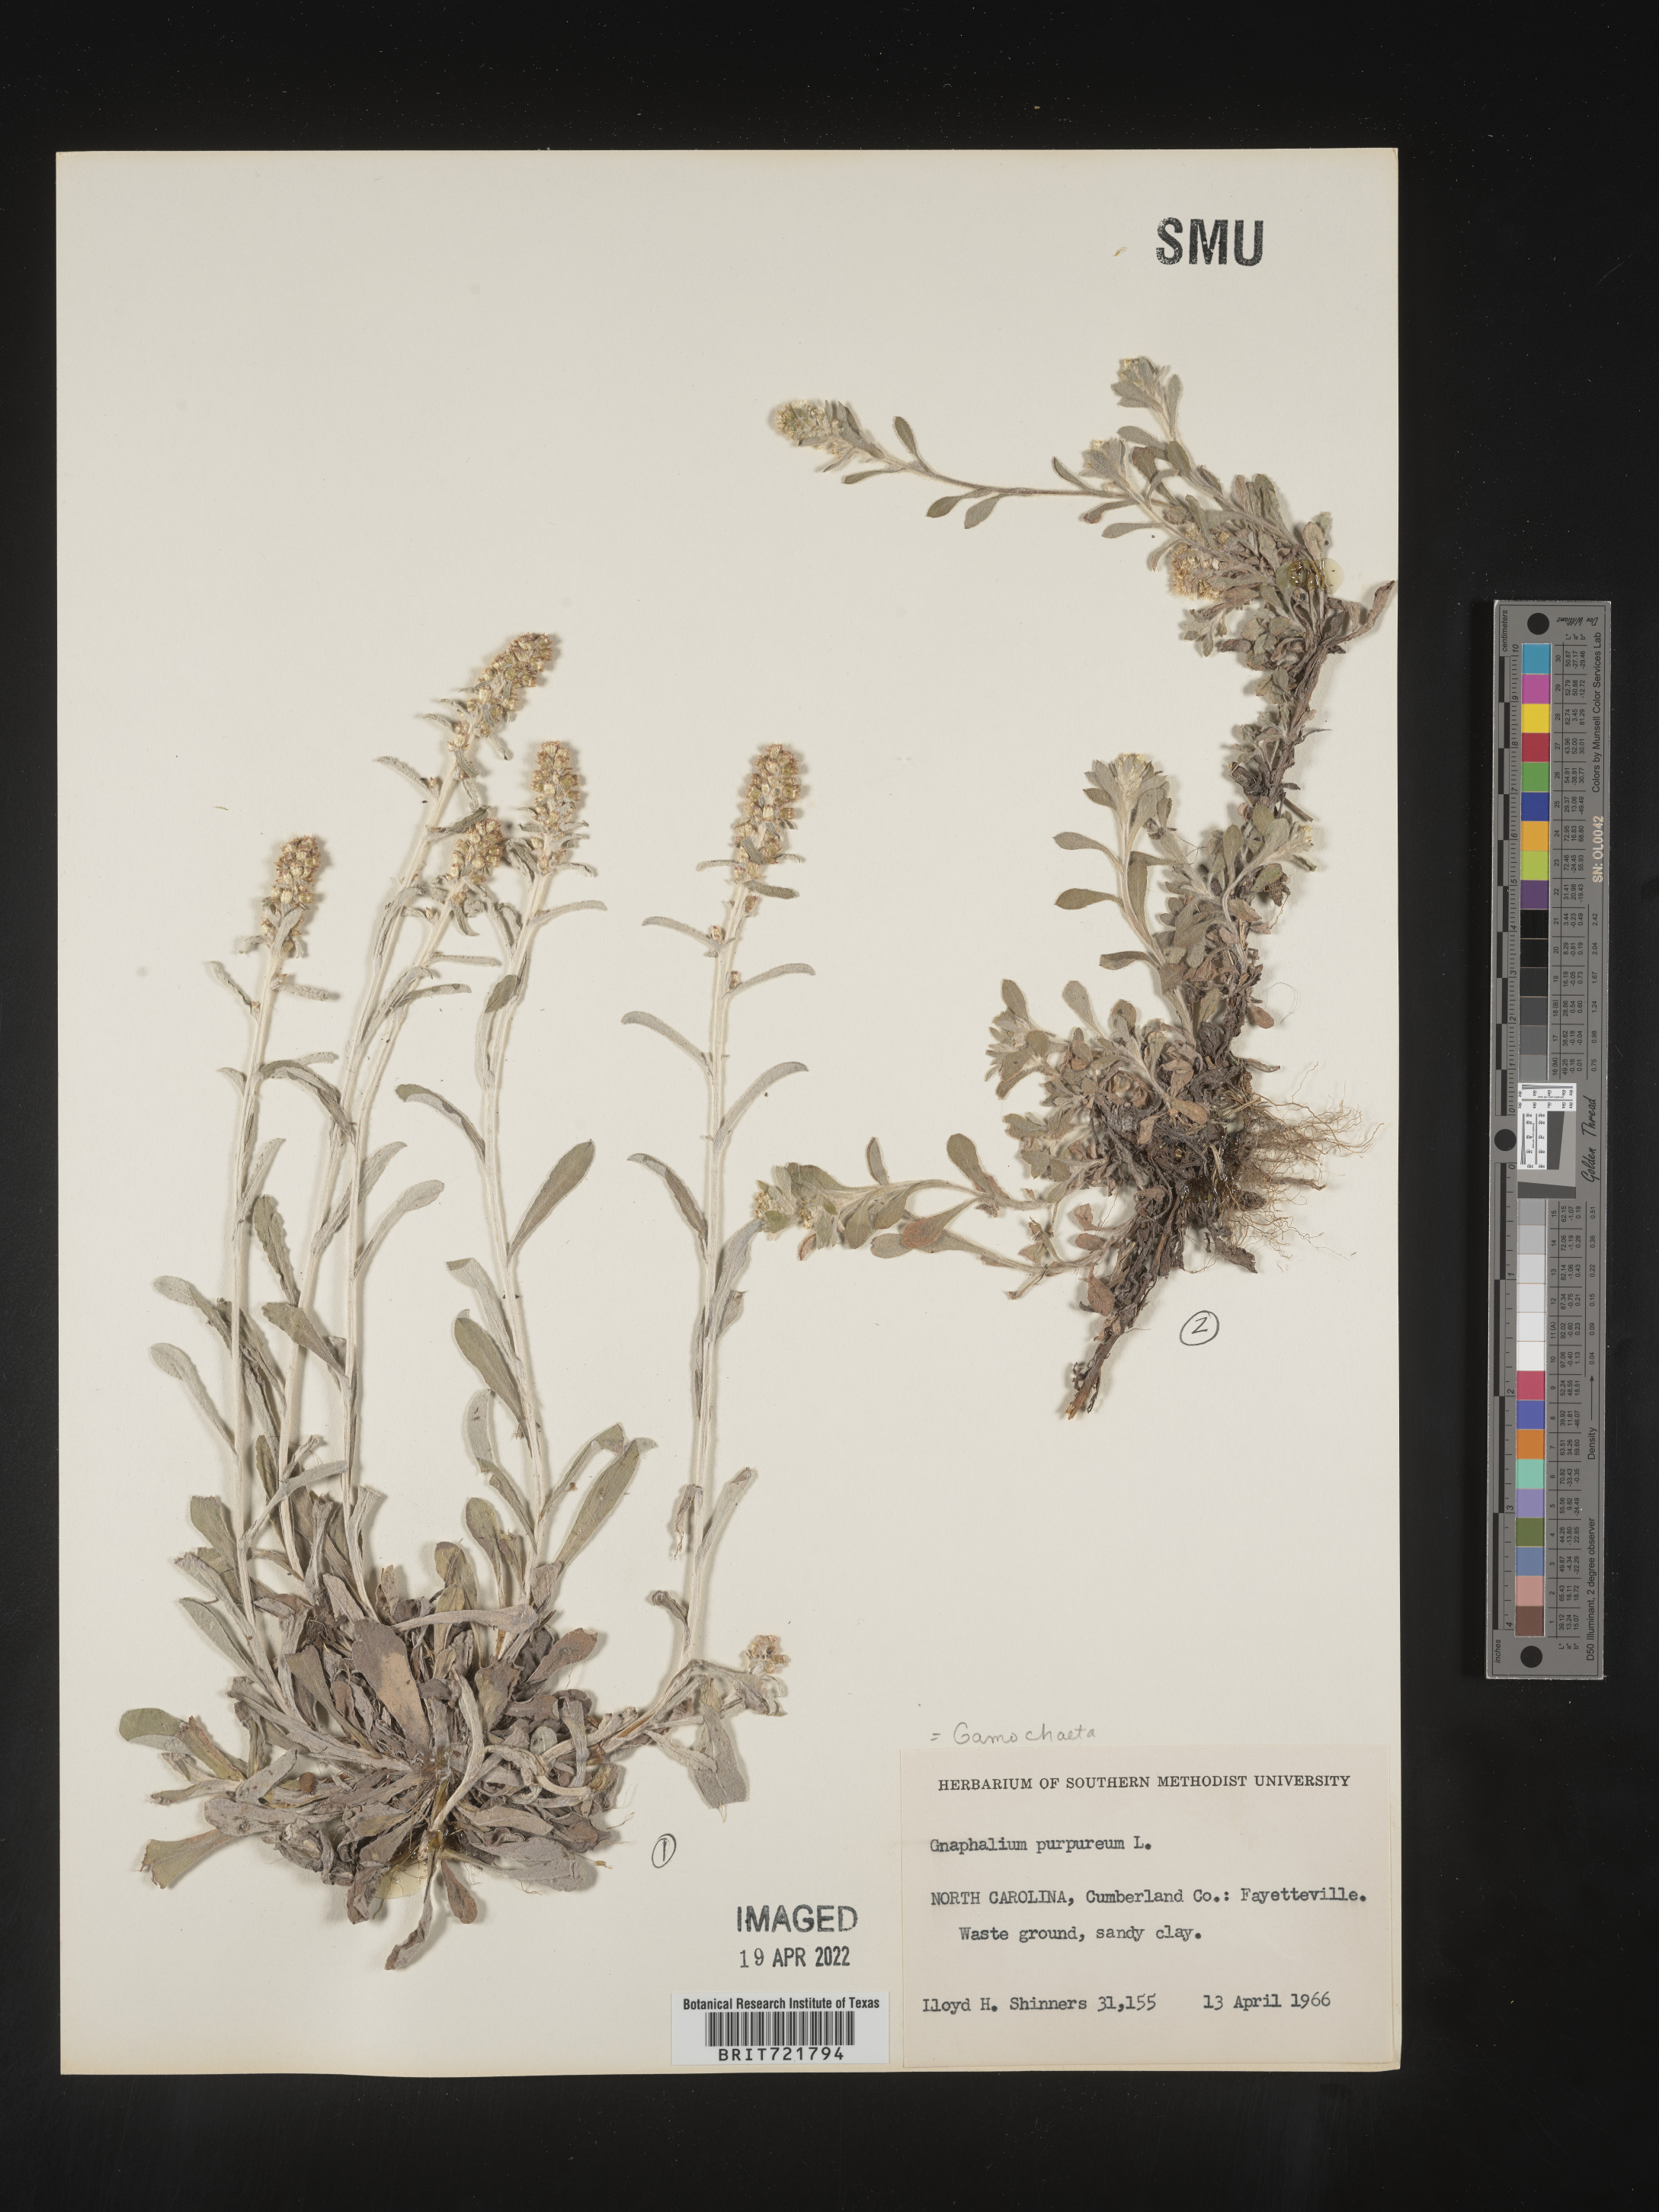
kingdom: Plantae
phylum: Tracheophyta
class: Magnoliopsida
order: Asterales
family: Asteraceae
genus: Gamochaeta
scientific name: Gamochaeta argyrinea
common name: Silvery cudweed
